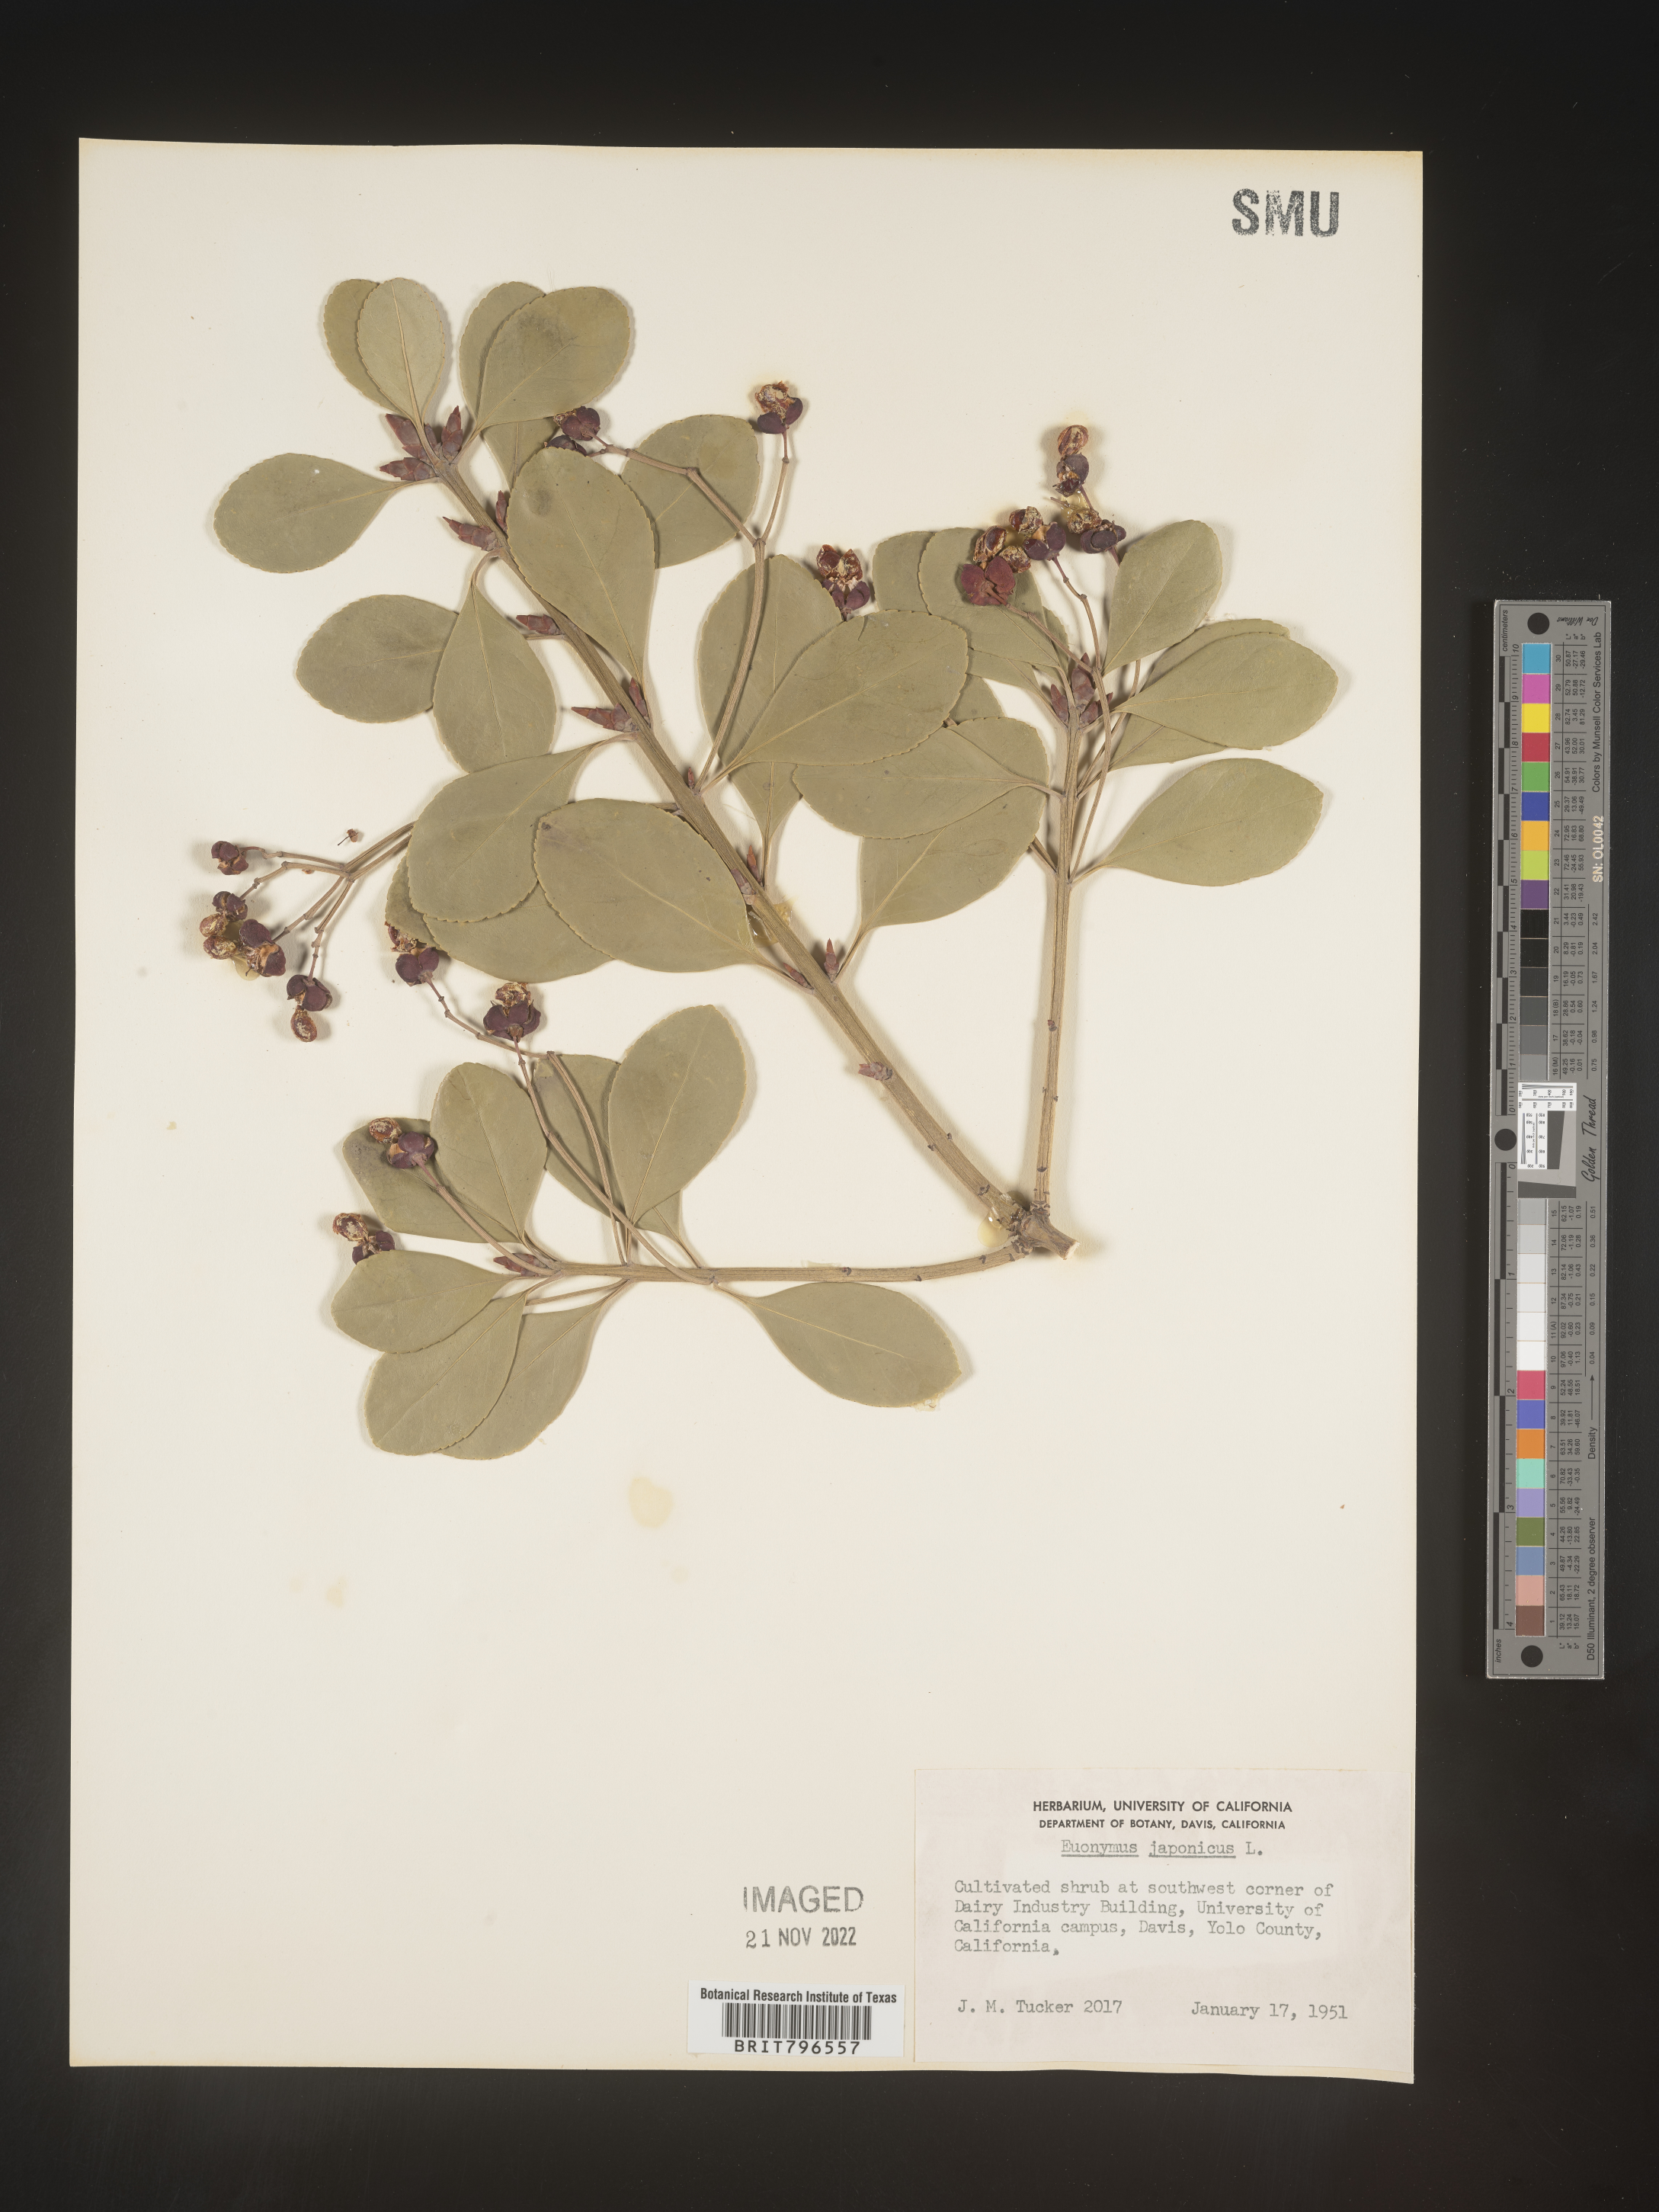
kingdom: Plantae
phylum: Tracheophyta
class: Magnoliopsida
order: Celastrales
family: Celastraceae
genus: Euonymus
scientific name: Euonymus
